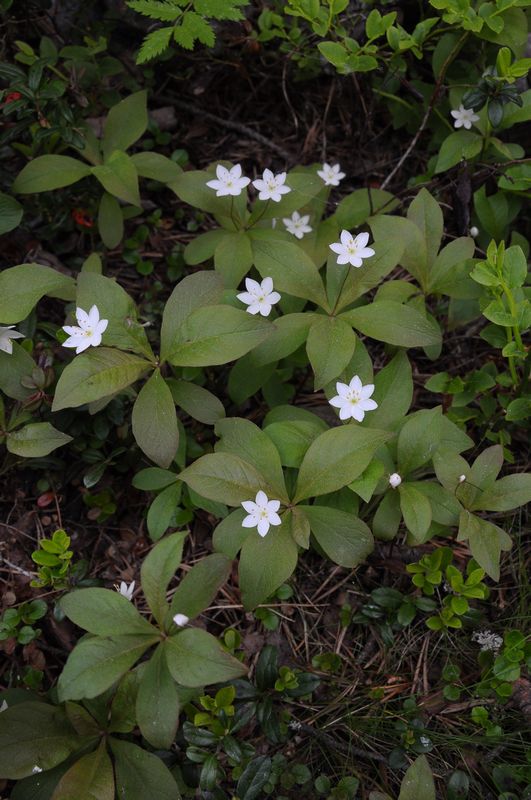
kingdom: Plantae
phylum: Tracheophyta
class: Magnoliopsida
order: Ericales
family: Primulaceae
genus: Lysimachia
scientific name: Lysimachia europaea
